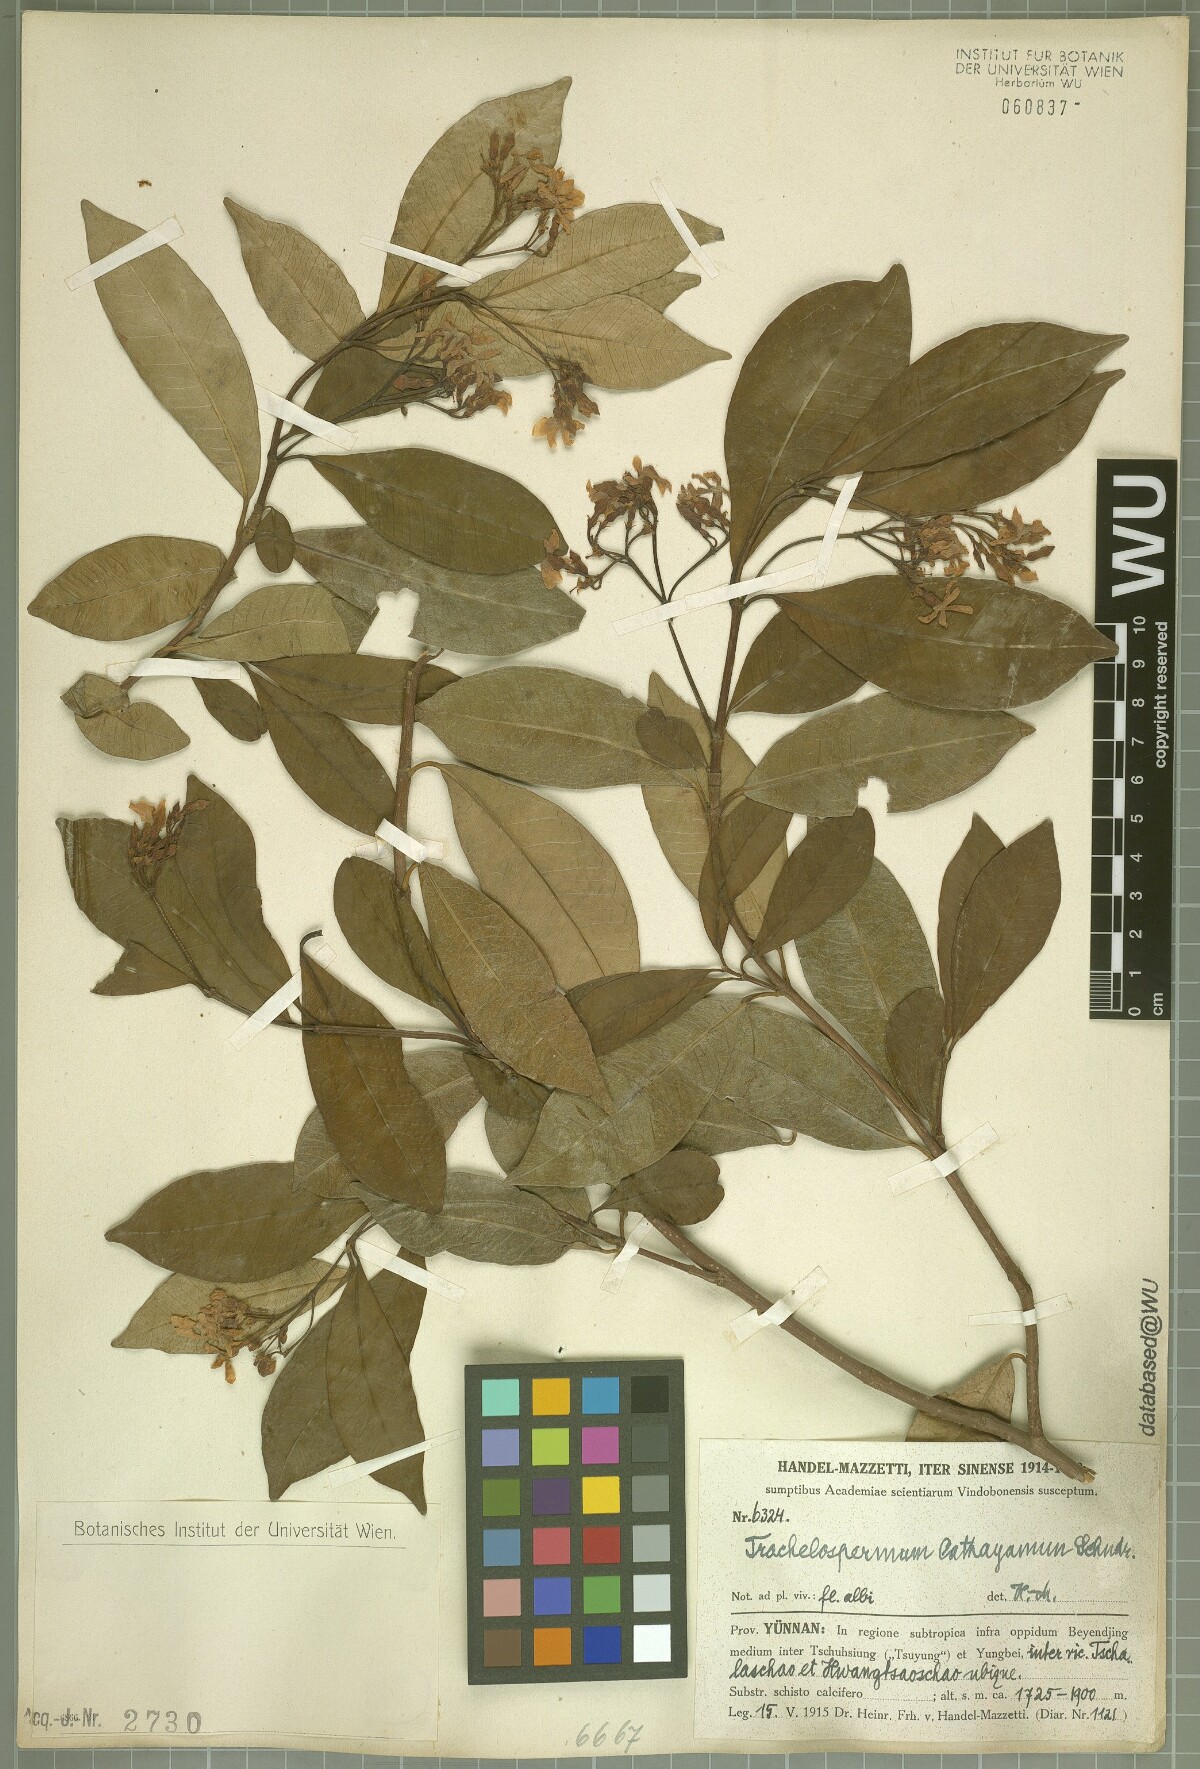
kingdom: Plantae
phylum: Tracheophyta
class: Magnoliopsida
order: Gentianales
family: Apocynaceae
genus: Trachelospermum
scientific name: Trachelospermum bodinieri
